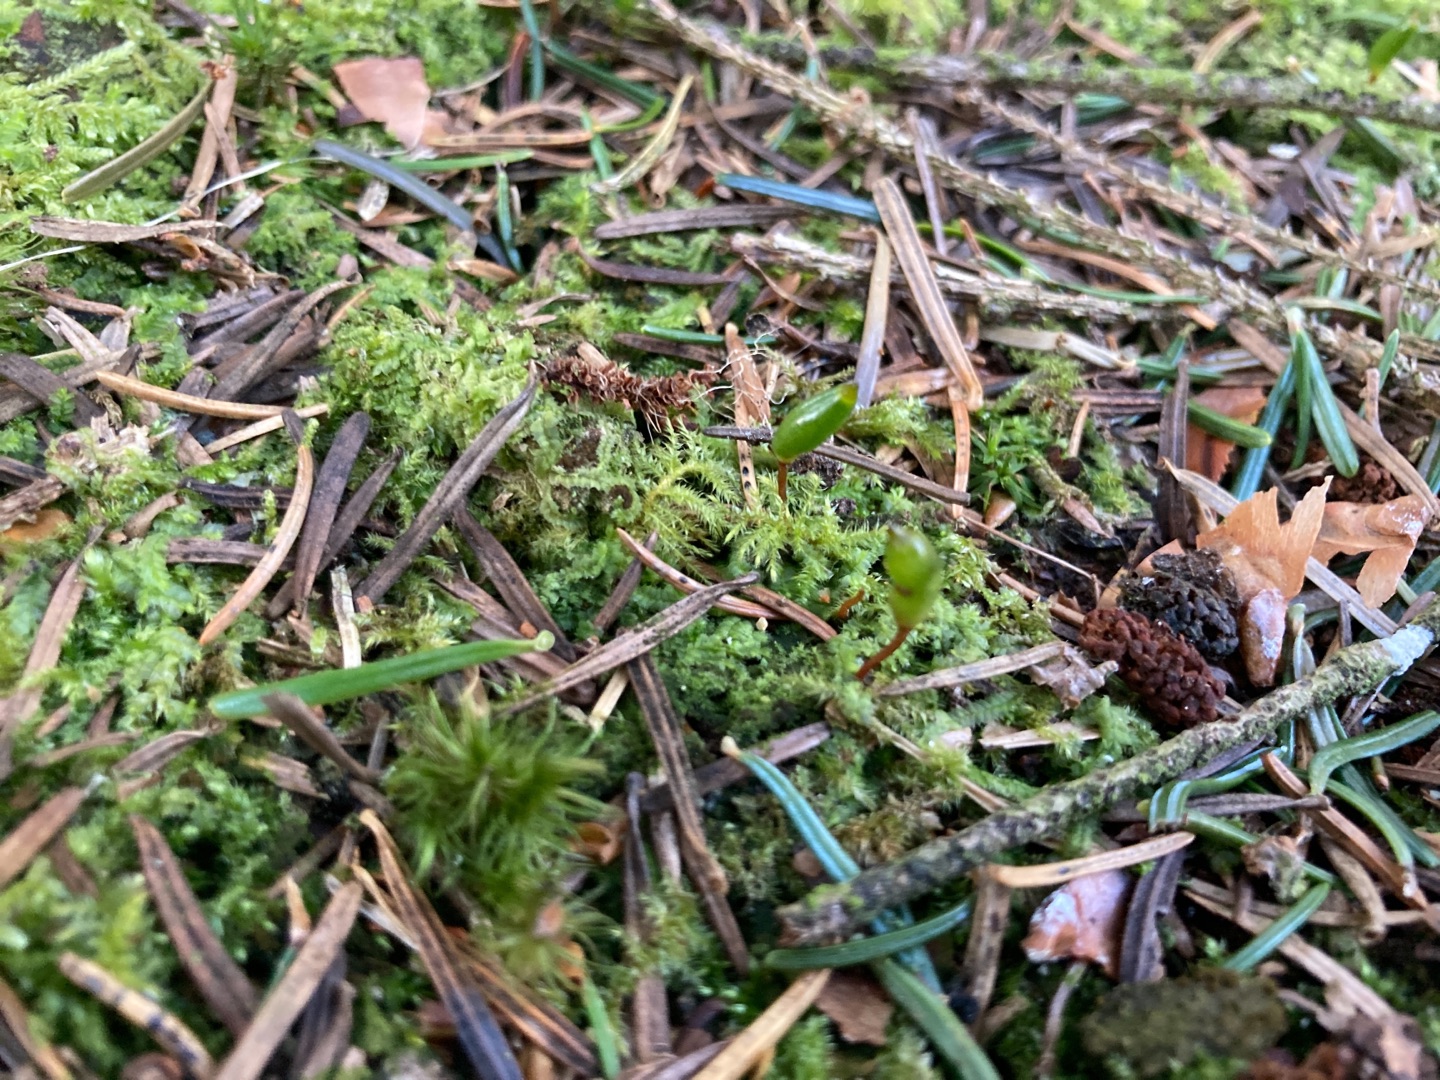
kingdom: Plantae
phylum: Bryophyta
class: Bryopsida
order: Buxbaumiales
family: Buxbaumiaceae
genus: Buxbaumia
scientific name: Buxbaumia viridis
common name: Grøn buxbaumia
